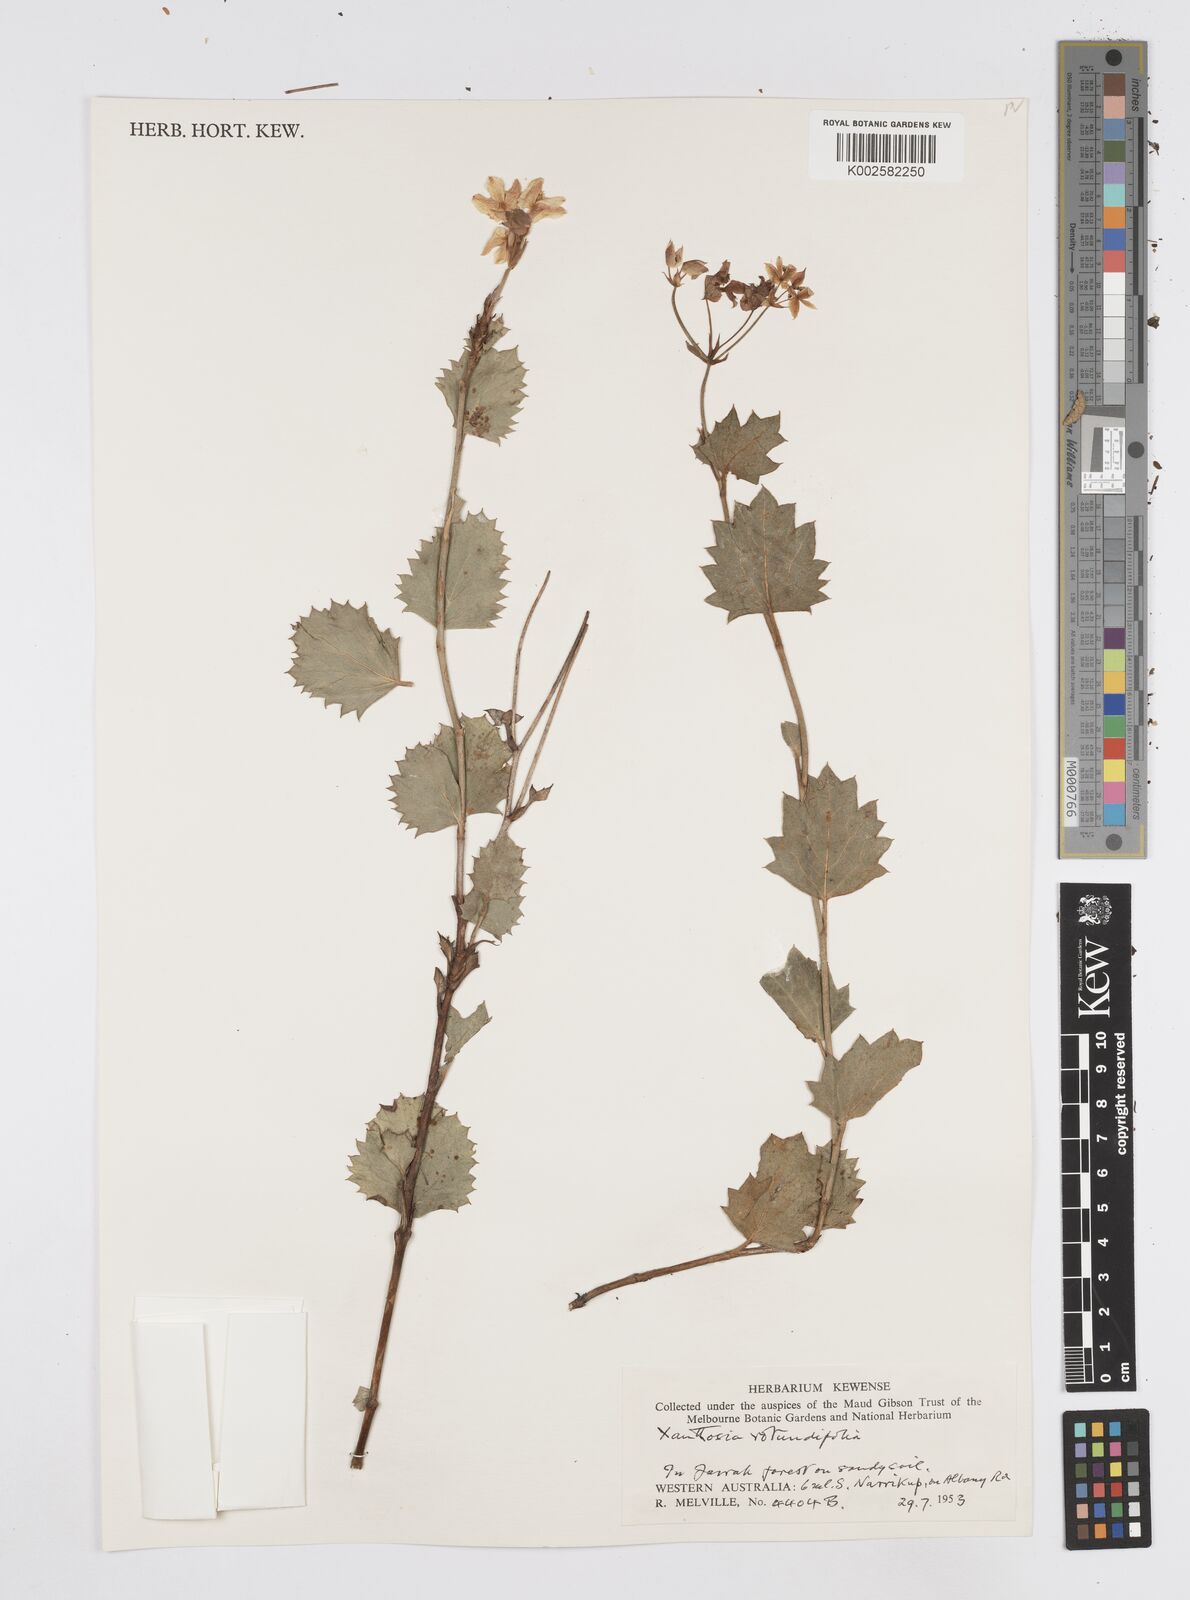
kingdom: Plantae
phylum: Tracheophyta
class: Magnoliopsida
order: Apiales
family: Apiaceae
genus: Xanthosia
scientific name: Xanthosia rotundifolia
